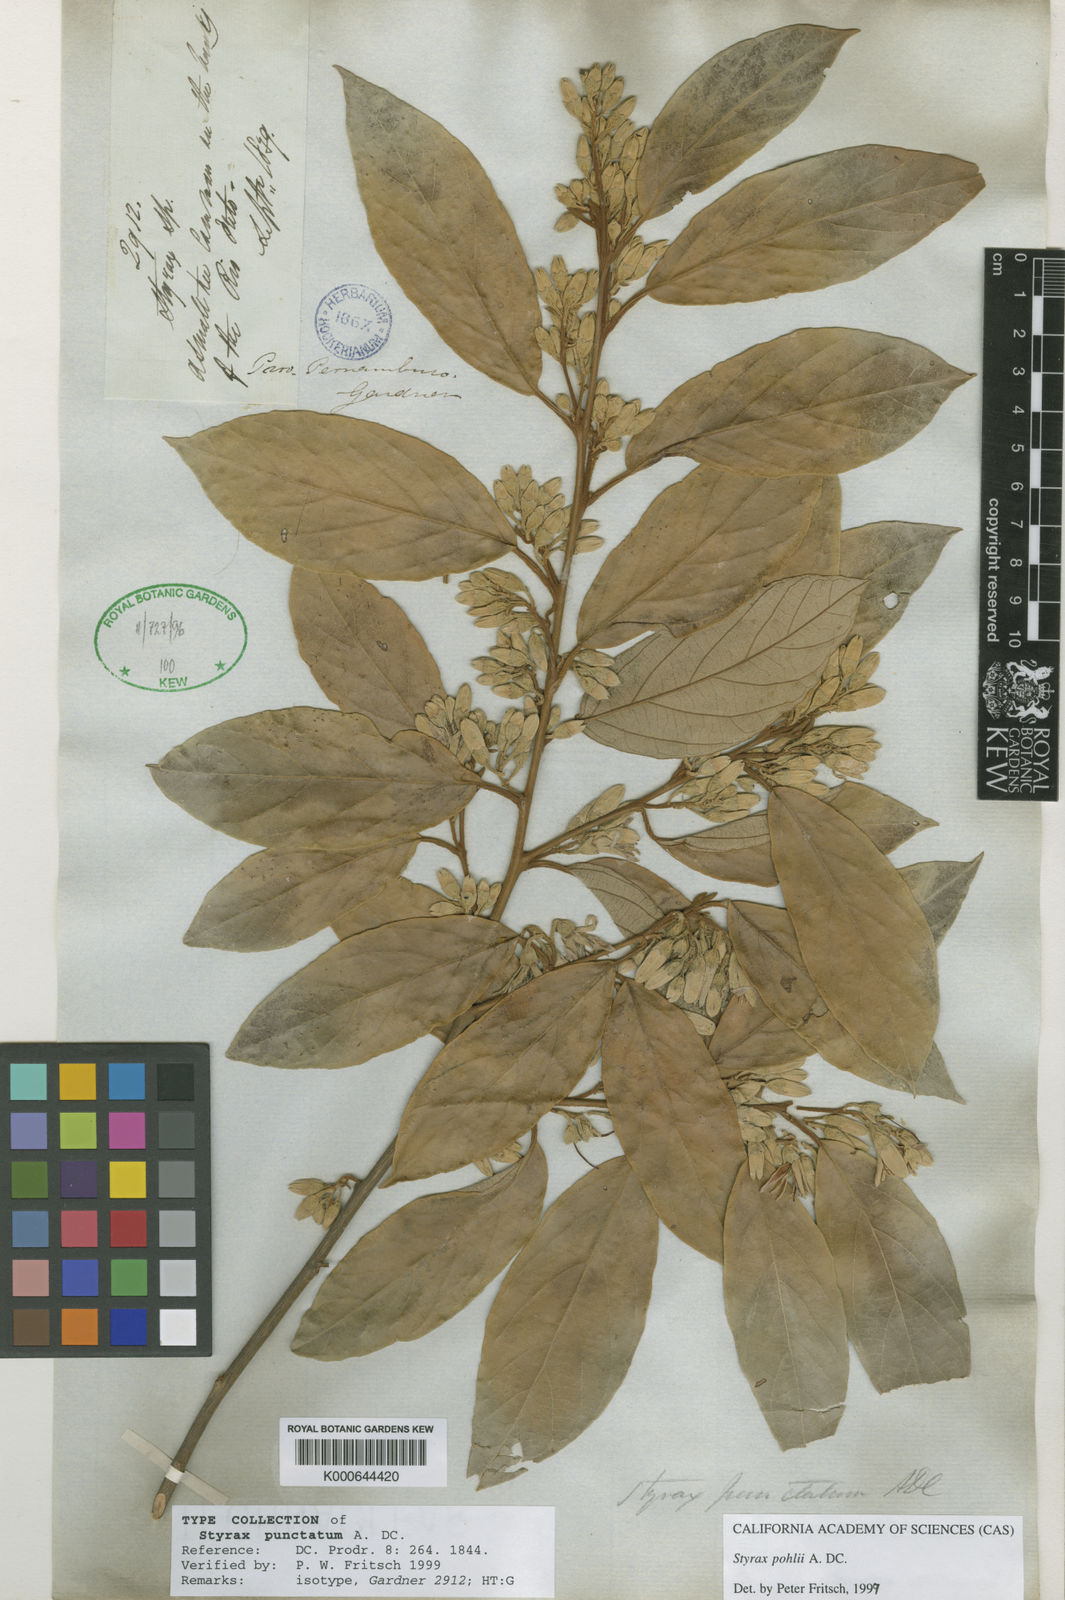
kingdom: Plantae
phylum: Tracheophyta
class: Magnoliopsida
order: Ericales
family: Styracaceae
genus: Styrax
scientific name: Styrax pohlii
